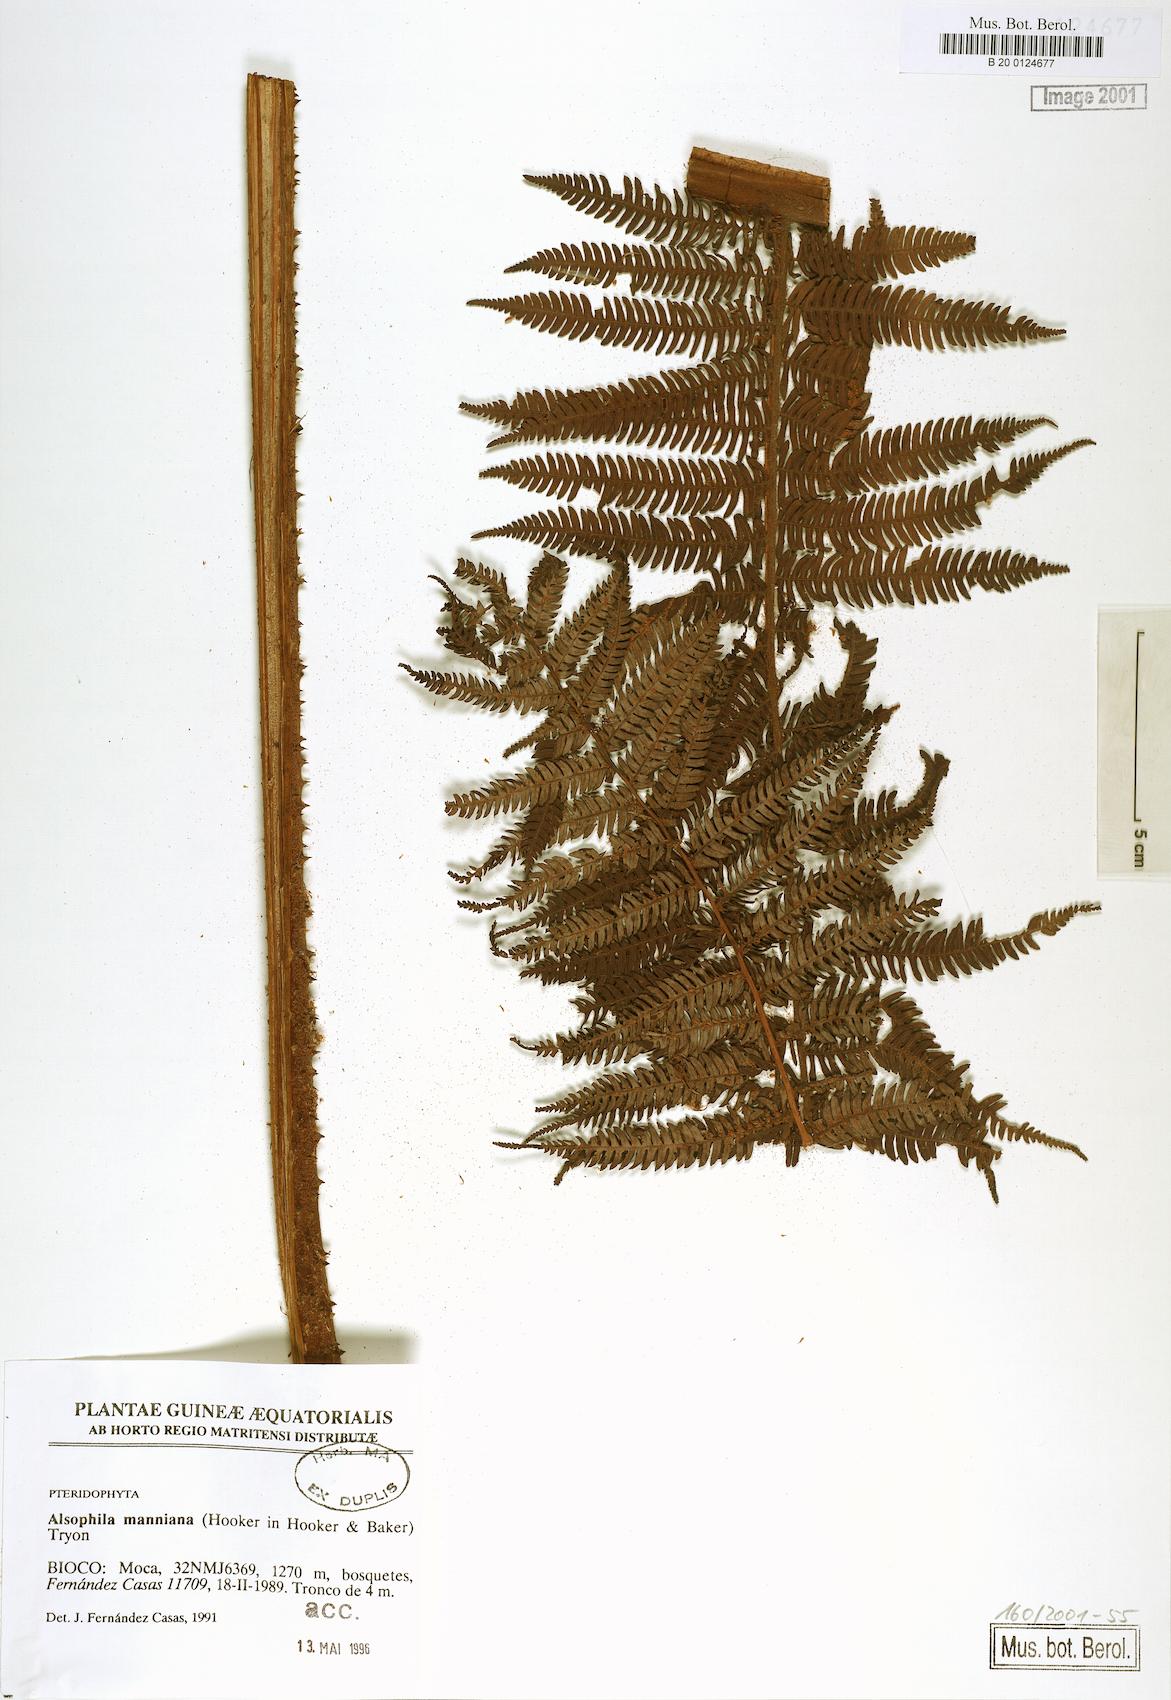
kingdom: Plantae
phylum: Tracheophyta
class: Polypodiopsida
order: Cyatheales
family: Cyatheaceae
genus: Alsophila
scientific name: Alsophila manniana
